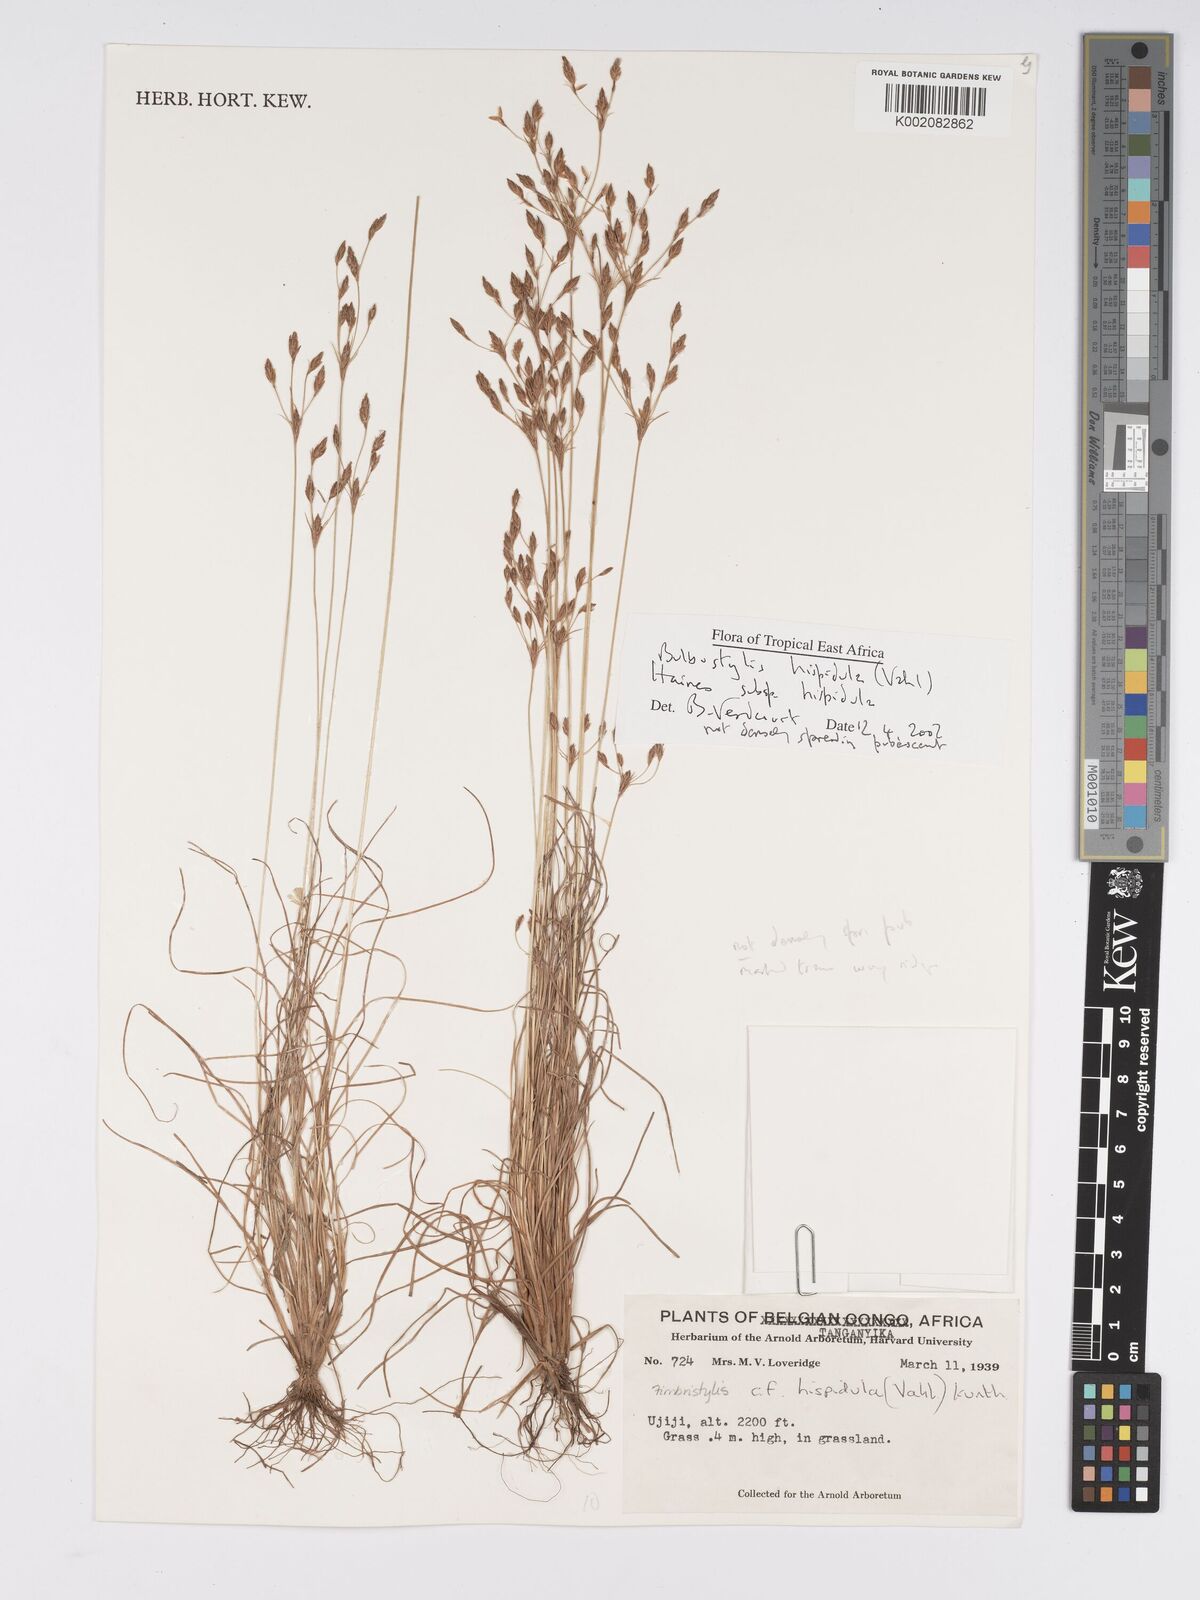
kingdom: Plantae
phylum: Tracheophyta
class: Liliopsida
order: Poales
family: Cyperaceae
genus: Bulbostylis
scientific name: Bulbostylis hispidula
